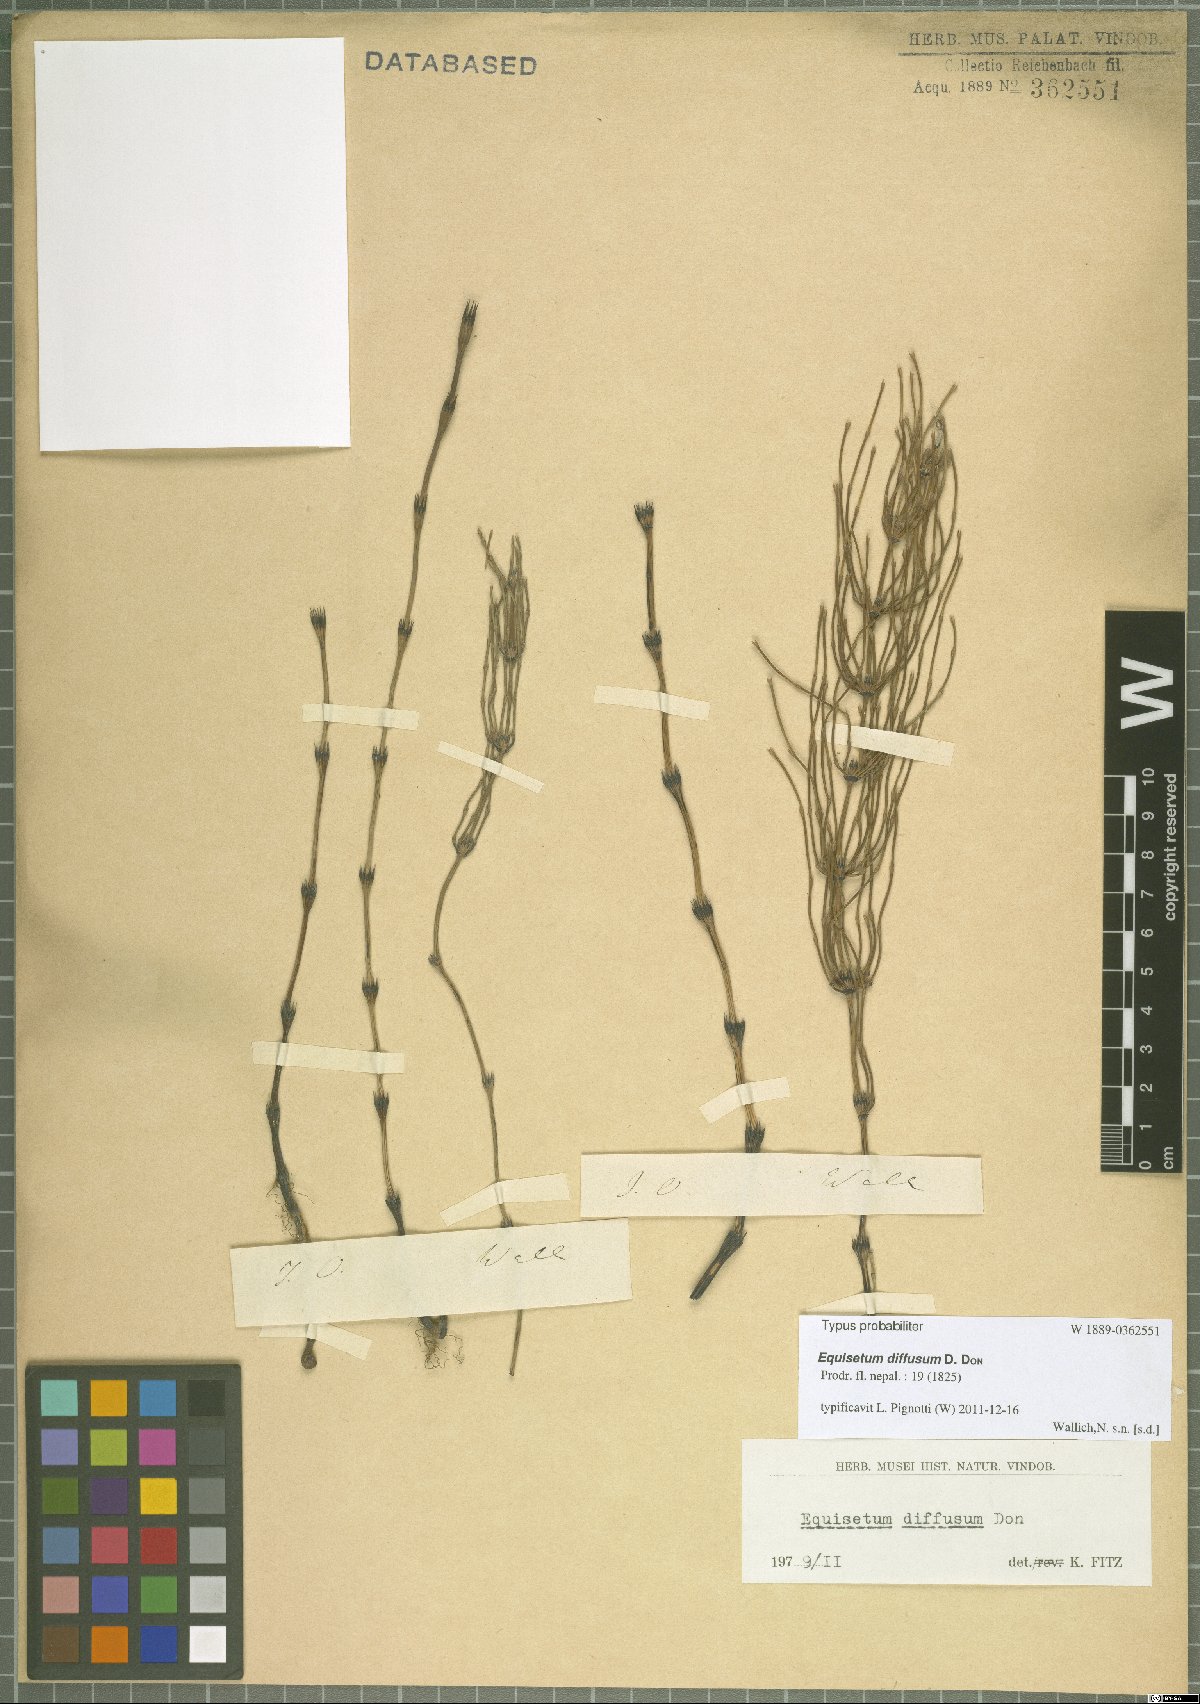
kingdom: Plantae
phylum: Tracheophyta
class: Polypodiopsida
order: Equisetales
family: Equisetaceae
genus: Equisetum
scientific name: Equisetum arvense
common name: Field horsetail
